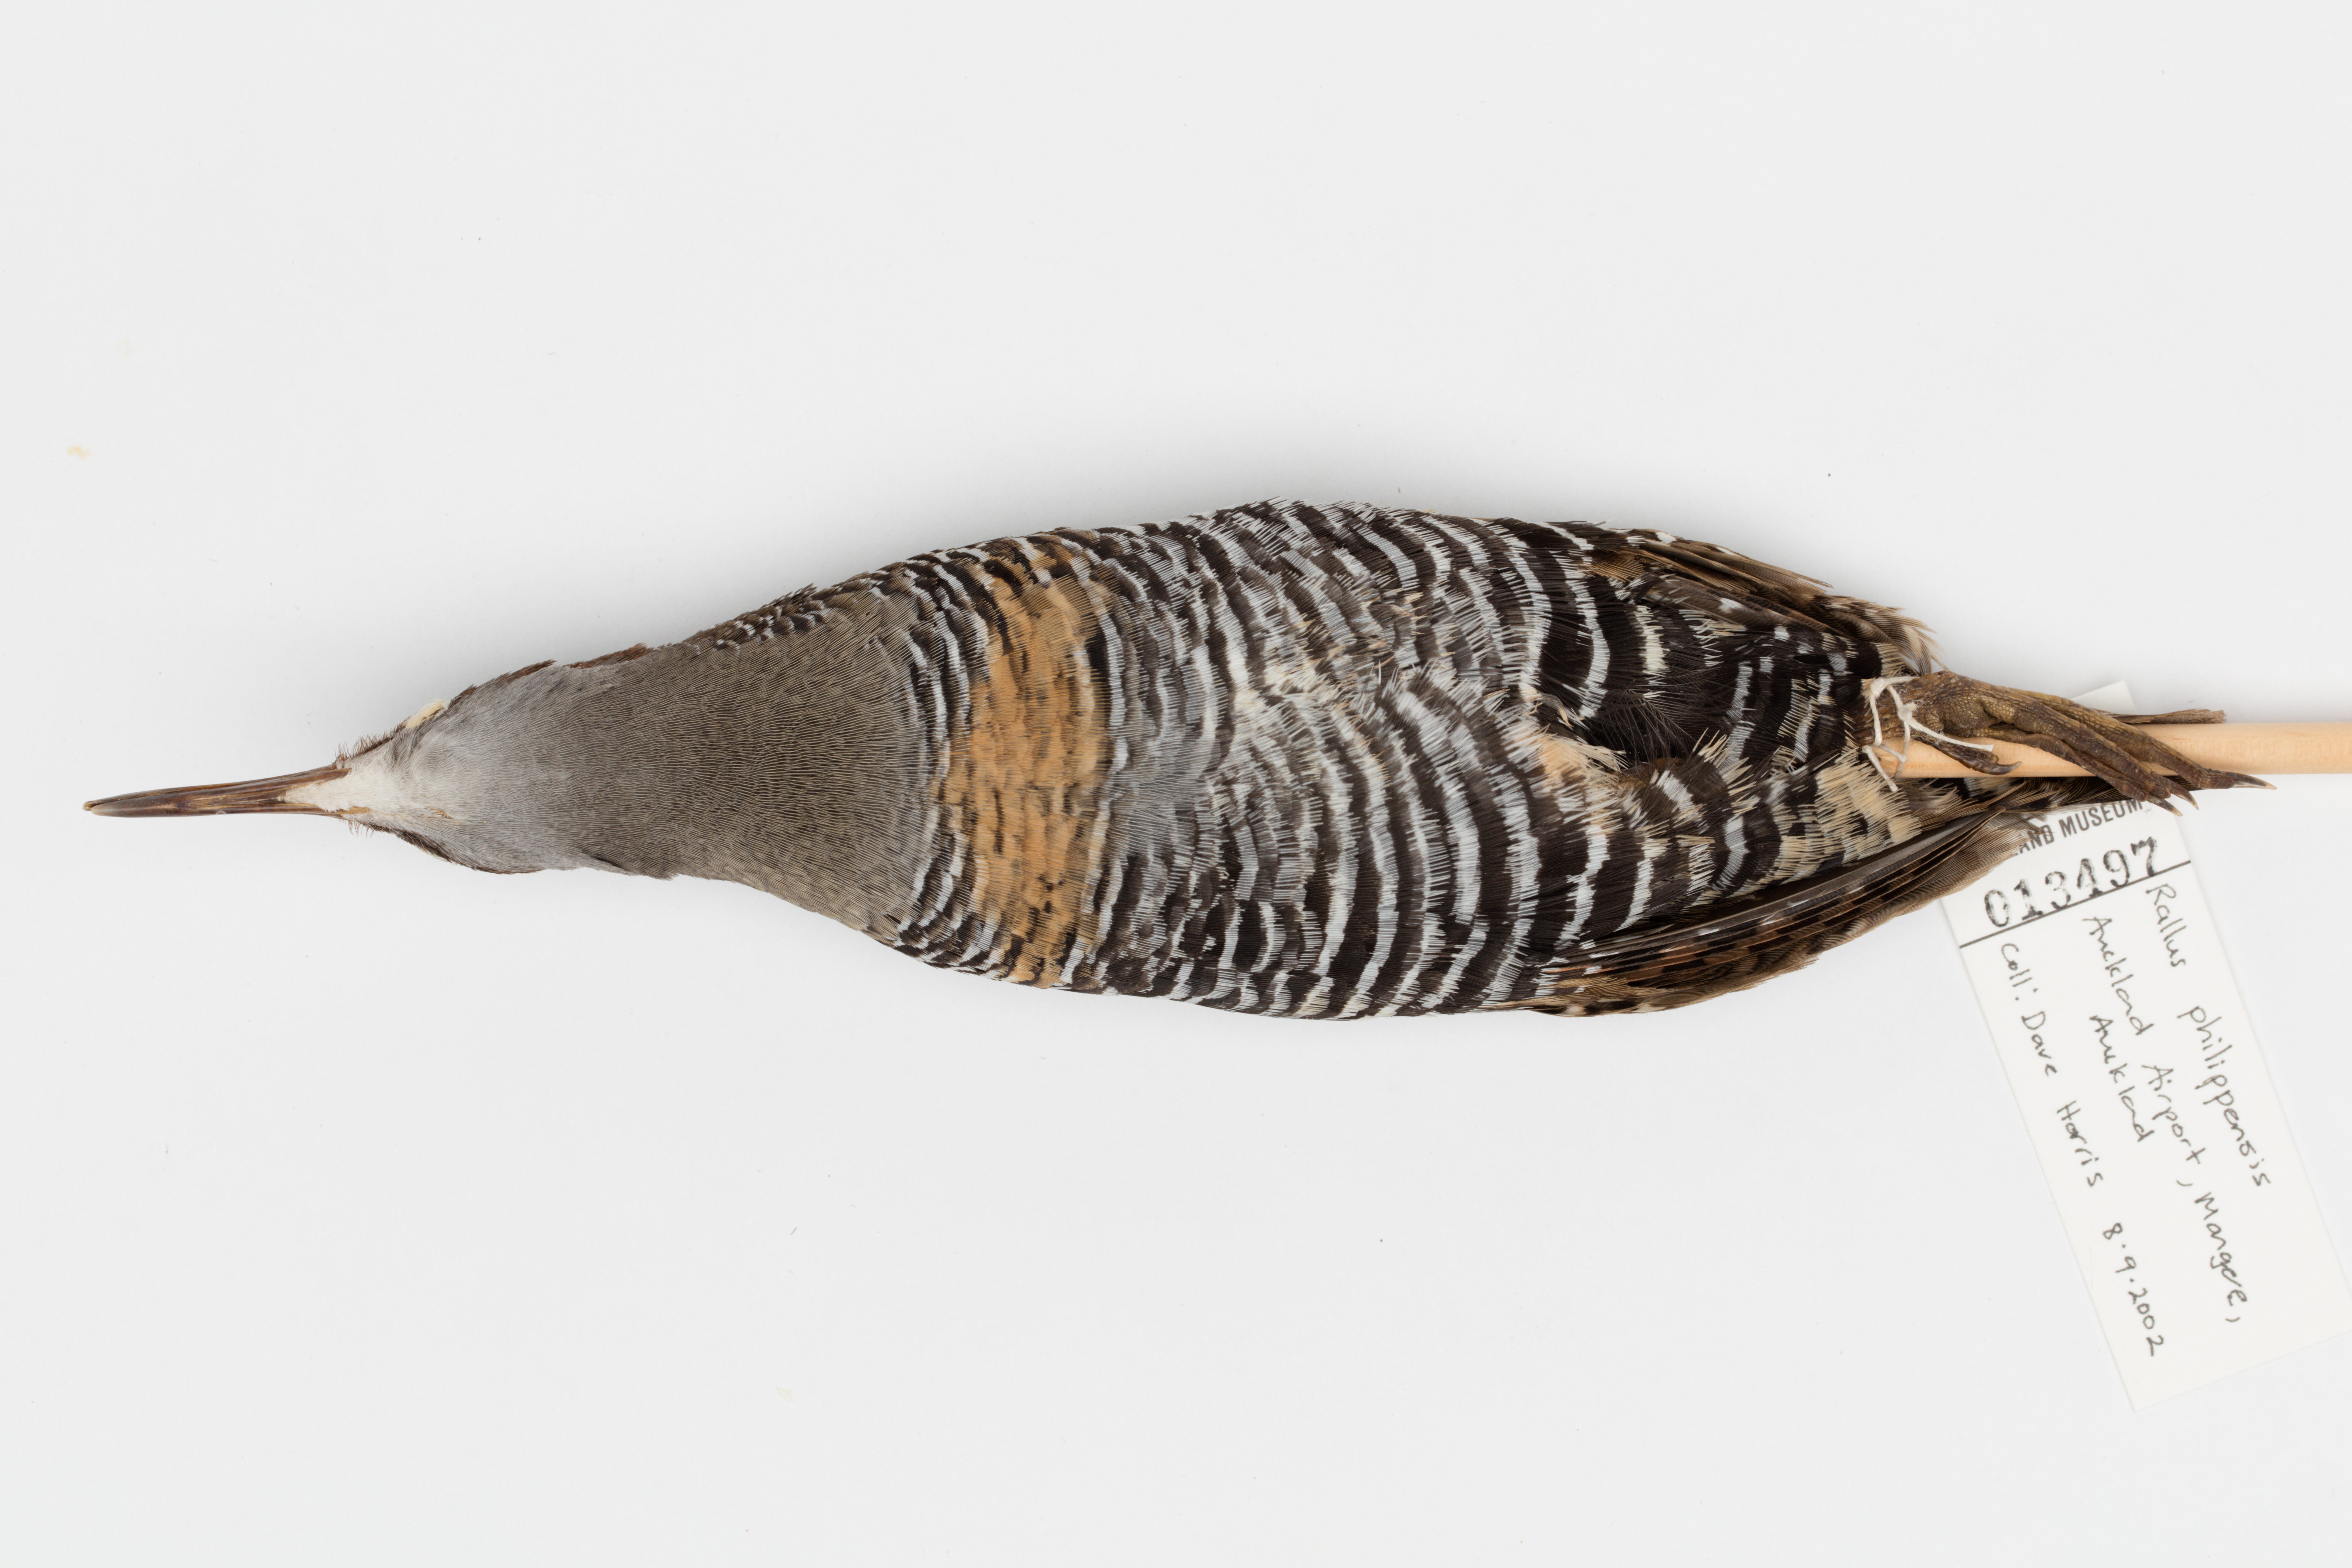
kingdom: Animalia
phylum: Chordata
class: Aves
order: Gruiformes
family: Rallidae
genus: Gallirallus
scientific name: Gallirallus philippensis
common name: Buff-banded rail
